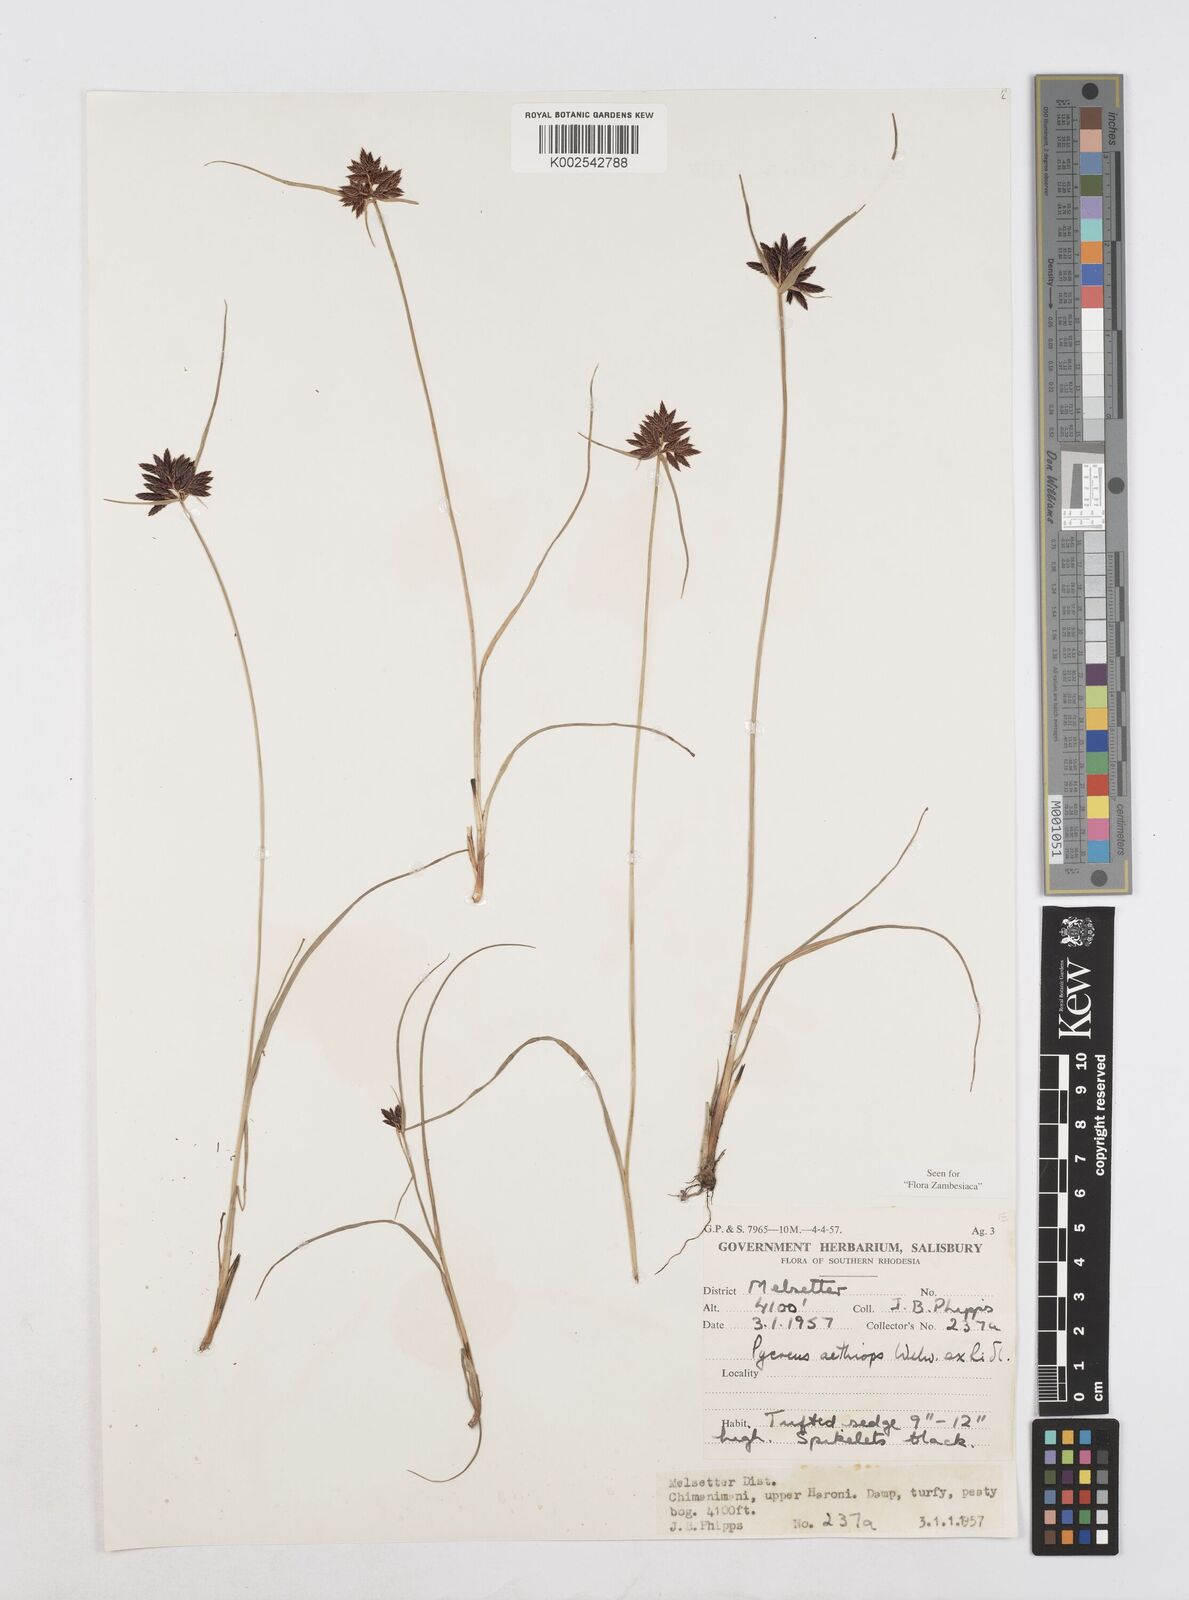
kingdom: Plantae
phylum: Tracheophyta
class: Liliopsida
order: Poales
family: Cyperaceae
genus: Cyperus
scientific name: Cyperus aethiops
